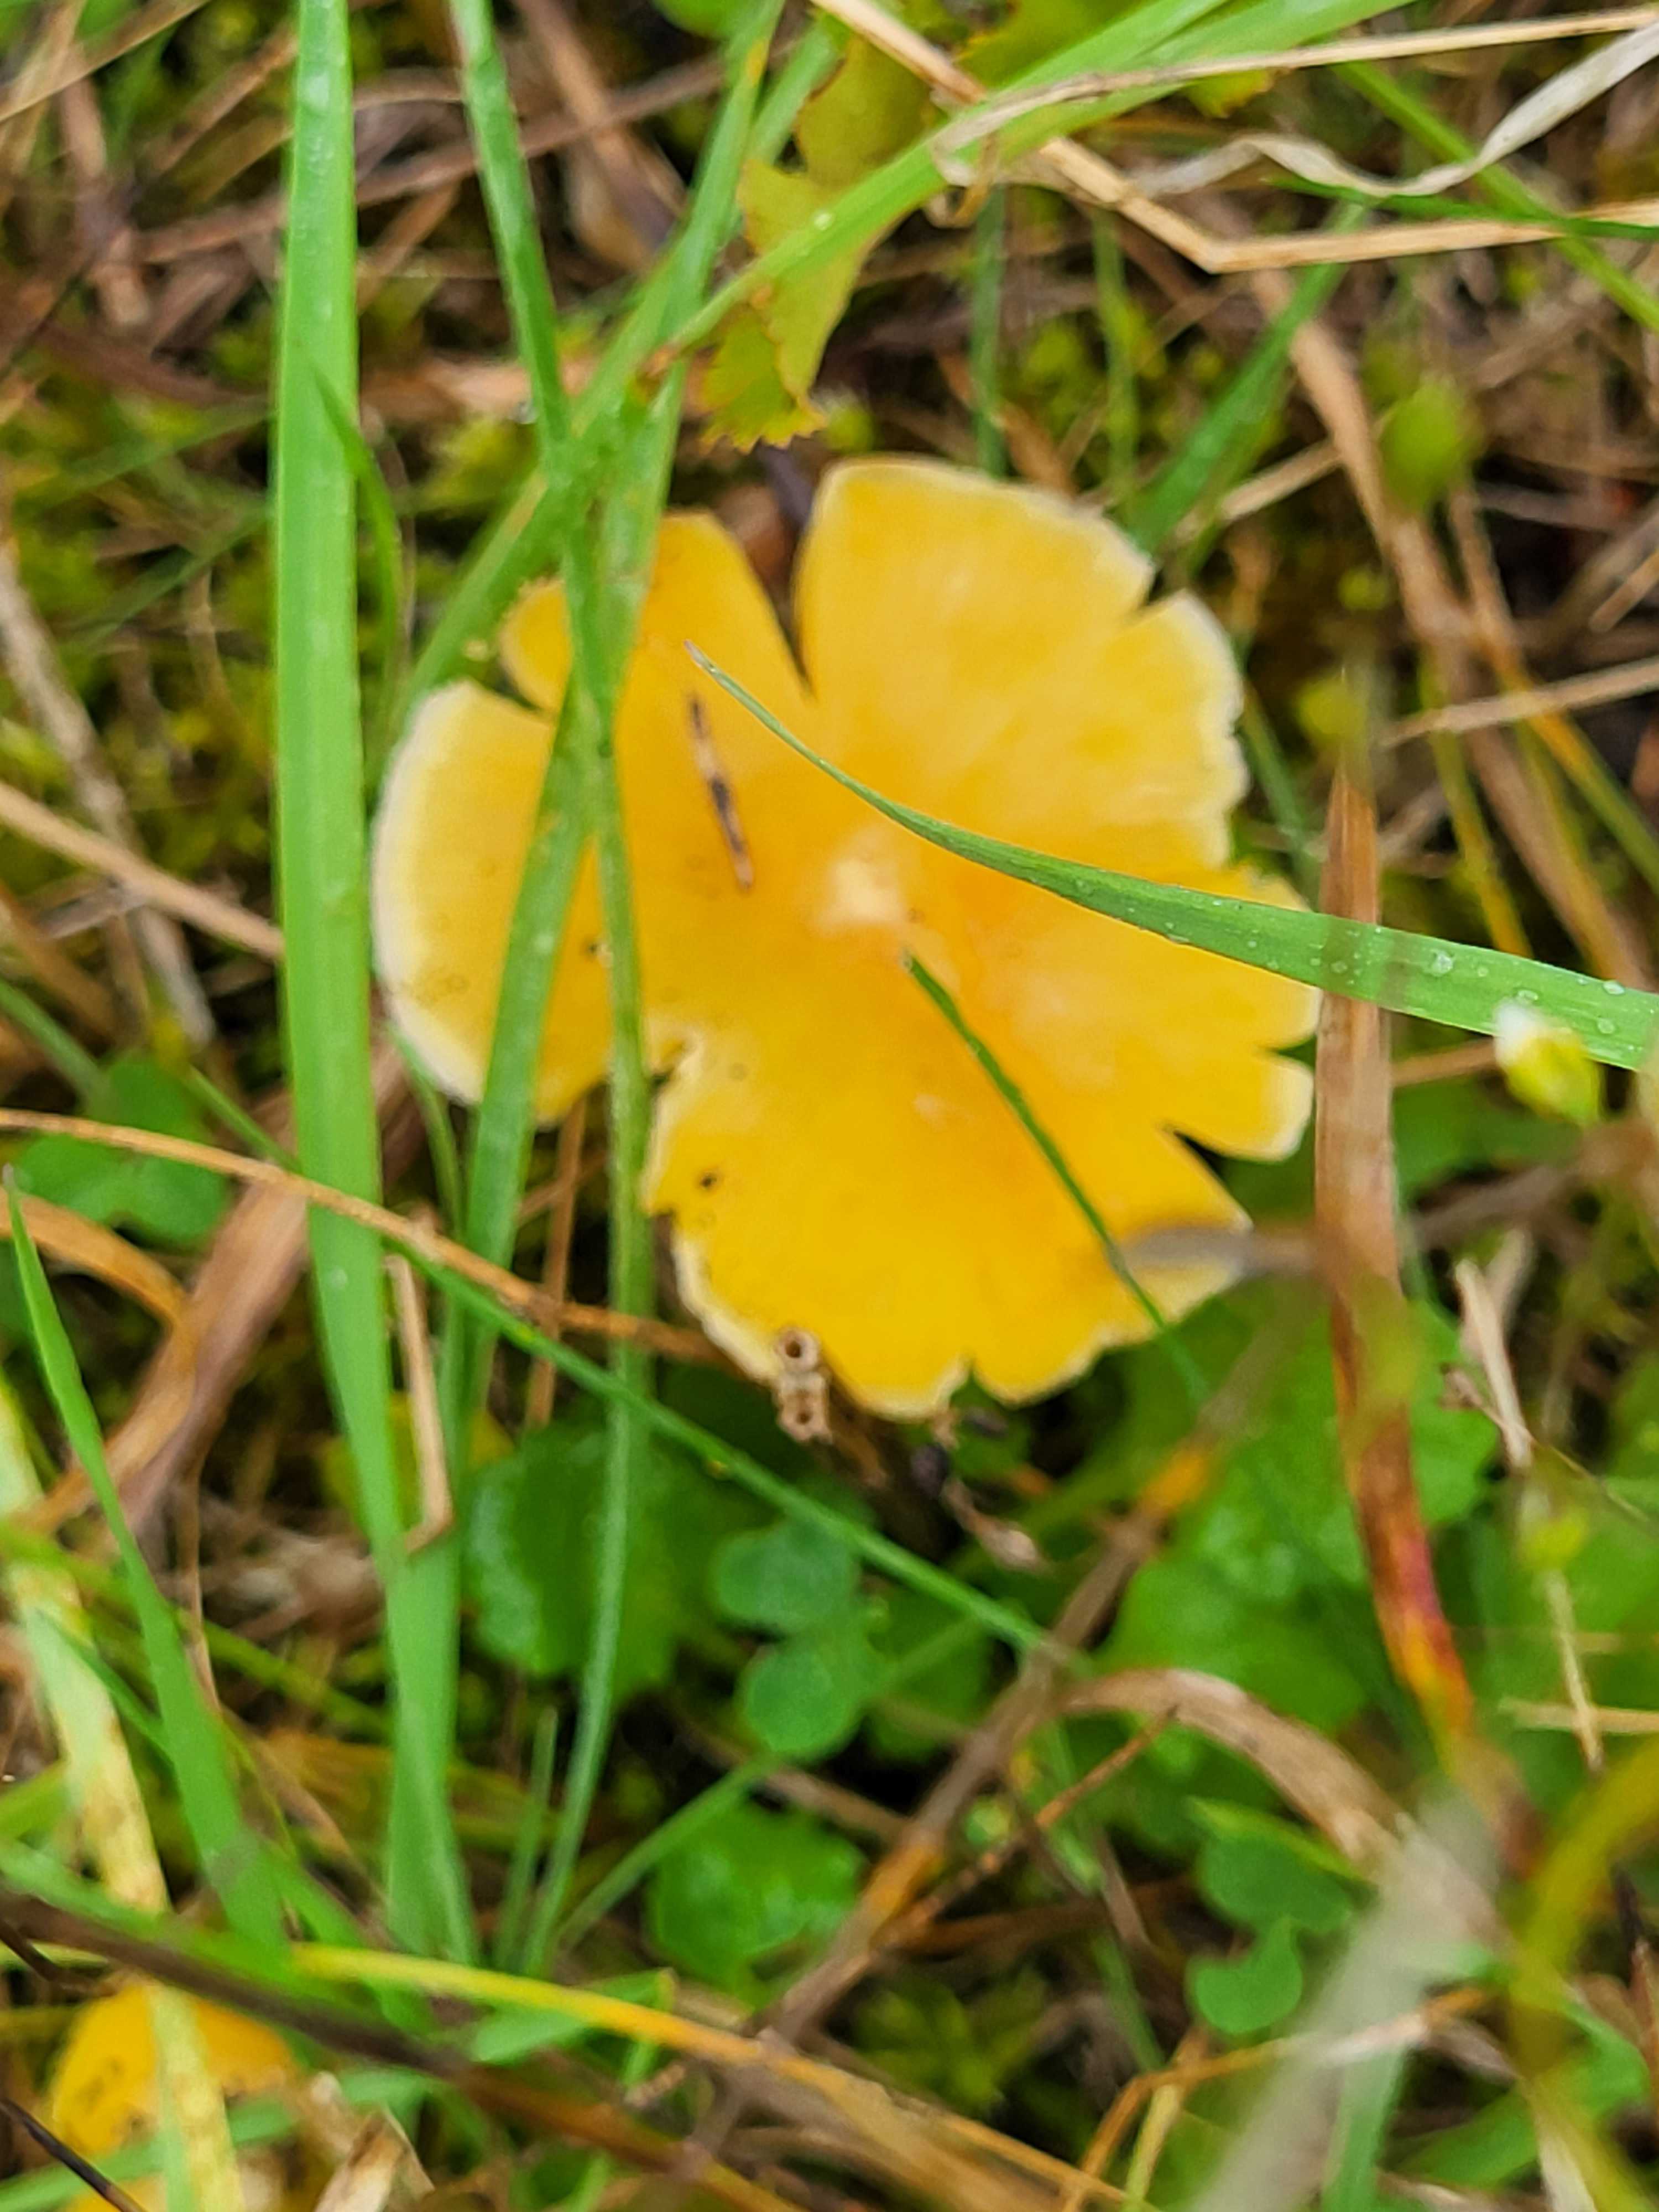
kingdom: Fungi
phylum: Basidiomycota
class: Agaricomycetes
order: Agaricales
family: Hygrophoraceae
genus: Hygrocybe
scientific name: Hygrocybe
